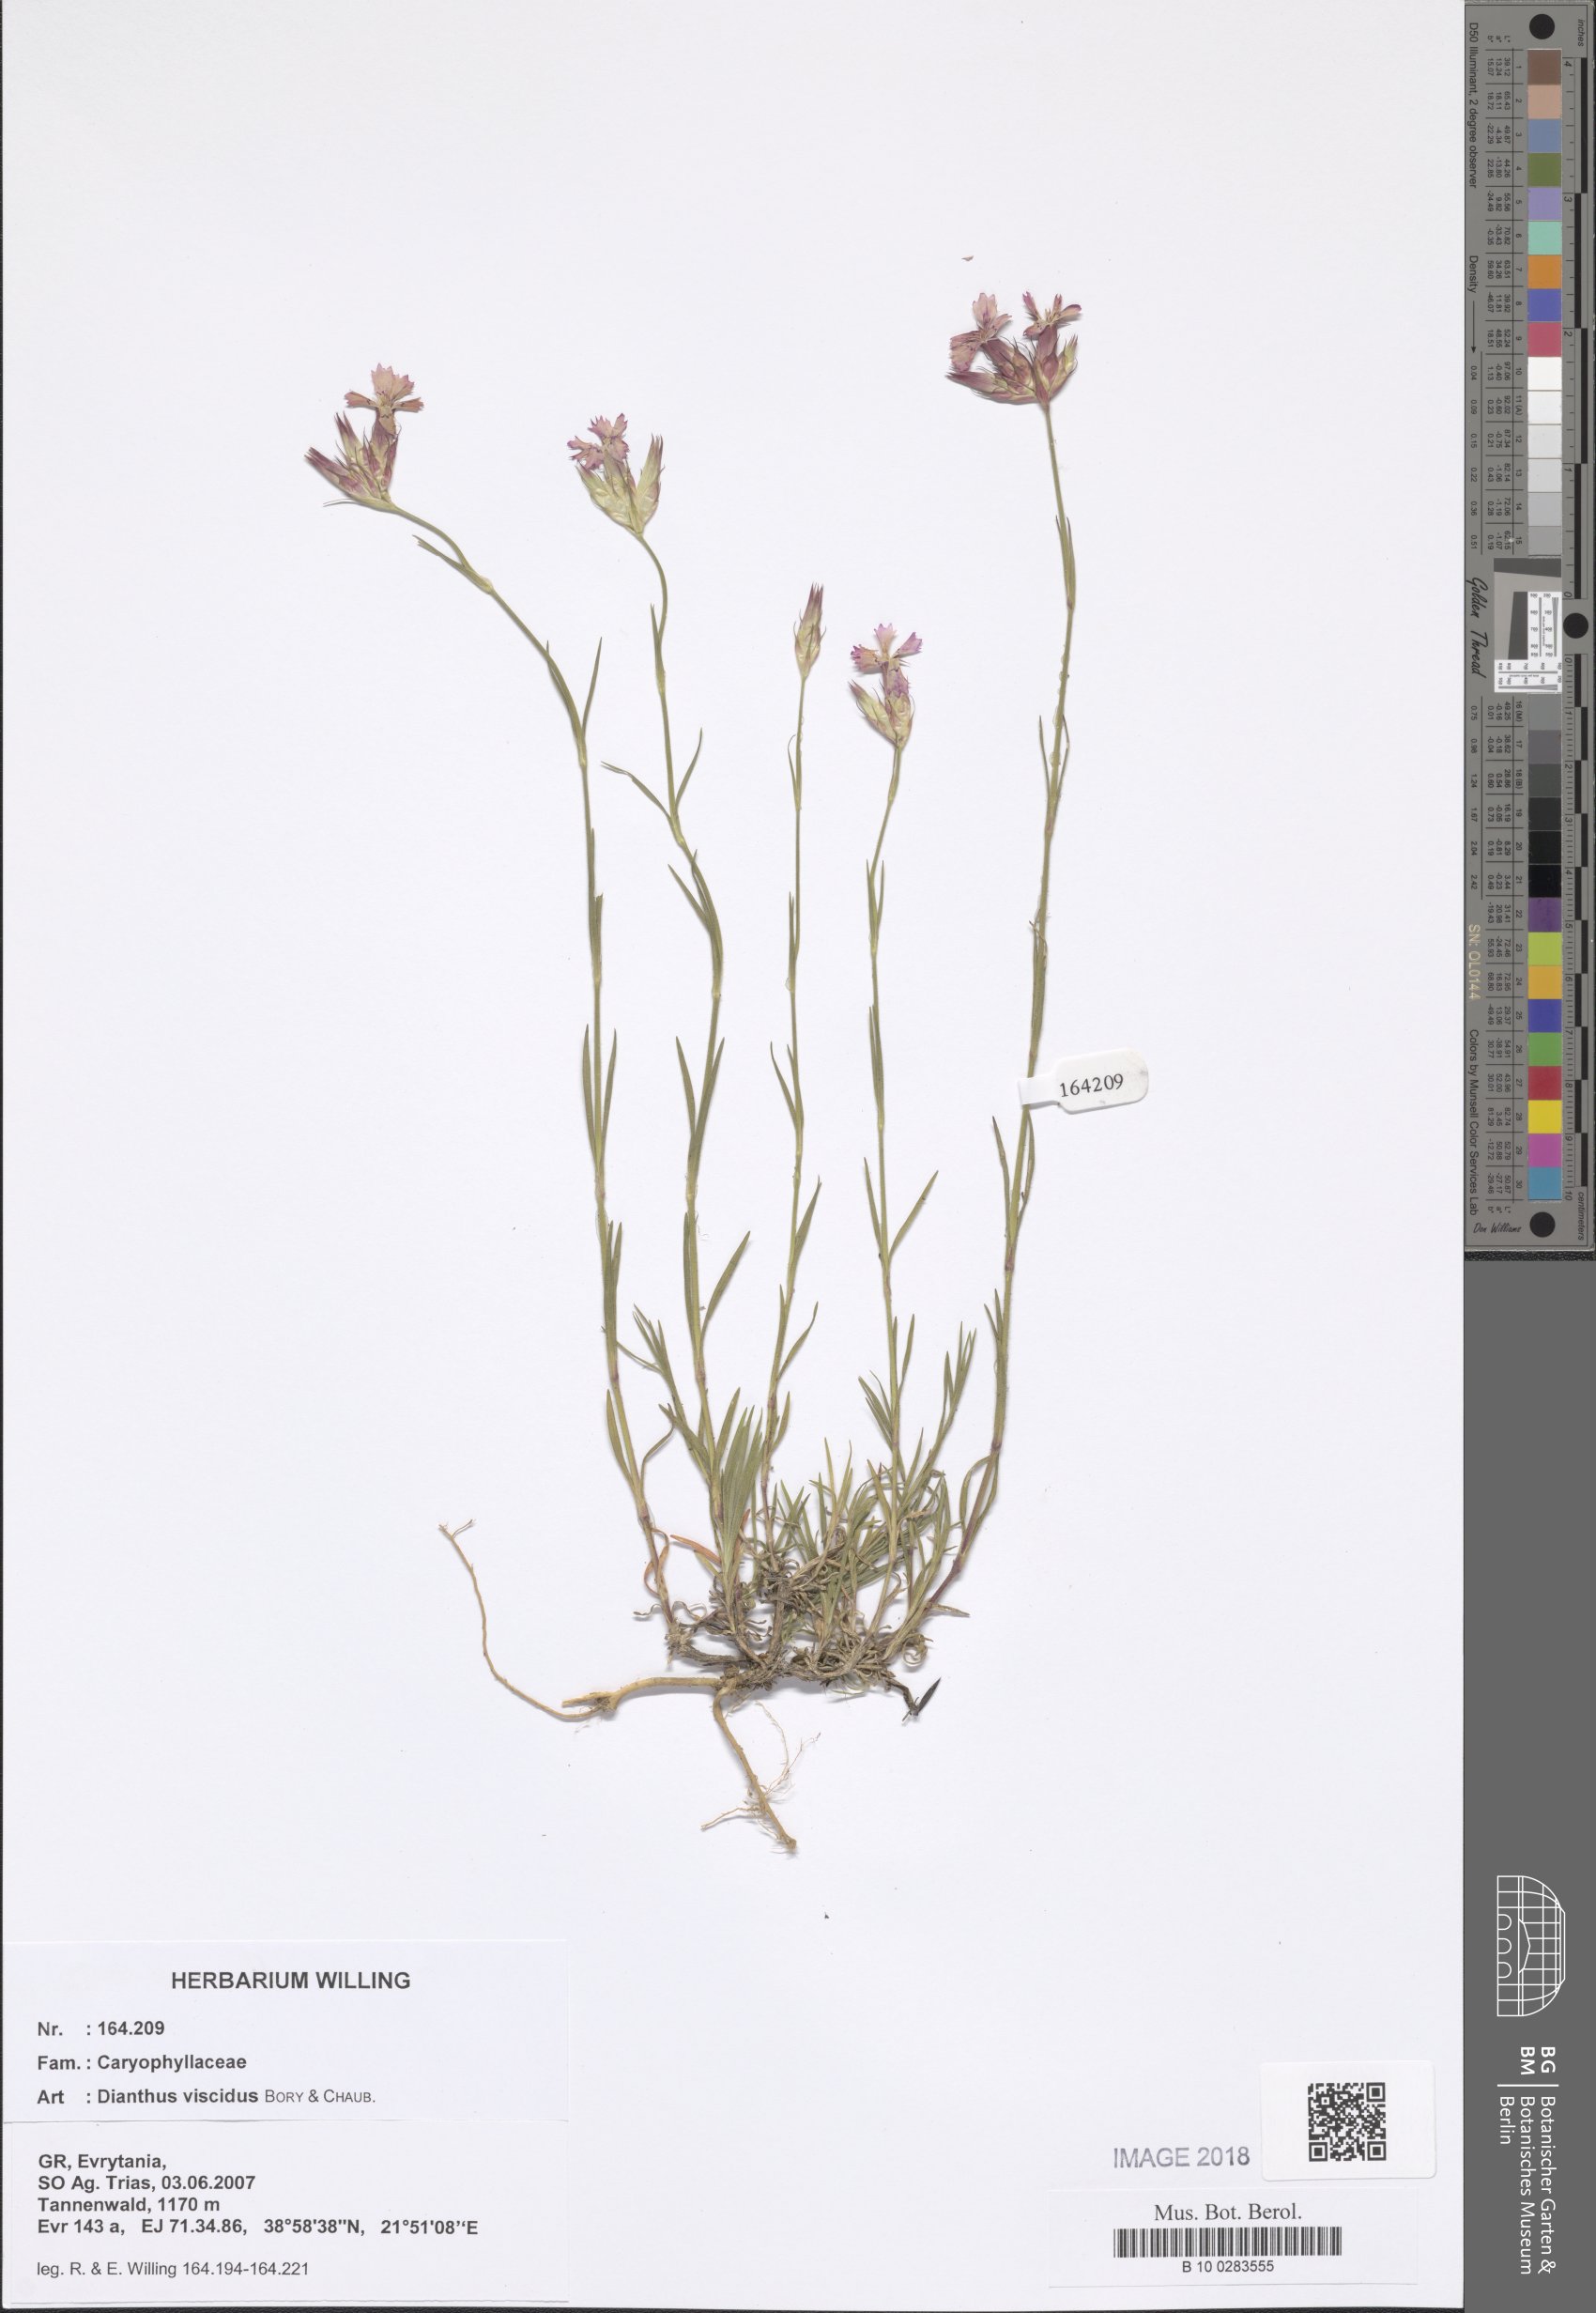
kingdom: Plantae
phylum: Tracheophyta
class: Magnoliopsida
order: Caryophyllales
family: Caryophyllaceae
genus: Dianthus
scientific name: Dianthus viscidus
